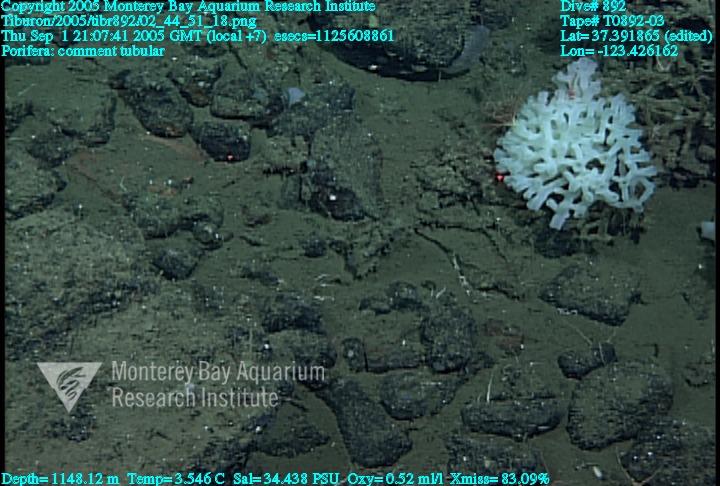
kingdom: Animalia
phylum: Porifera
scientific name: Porifera
